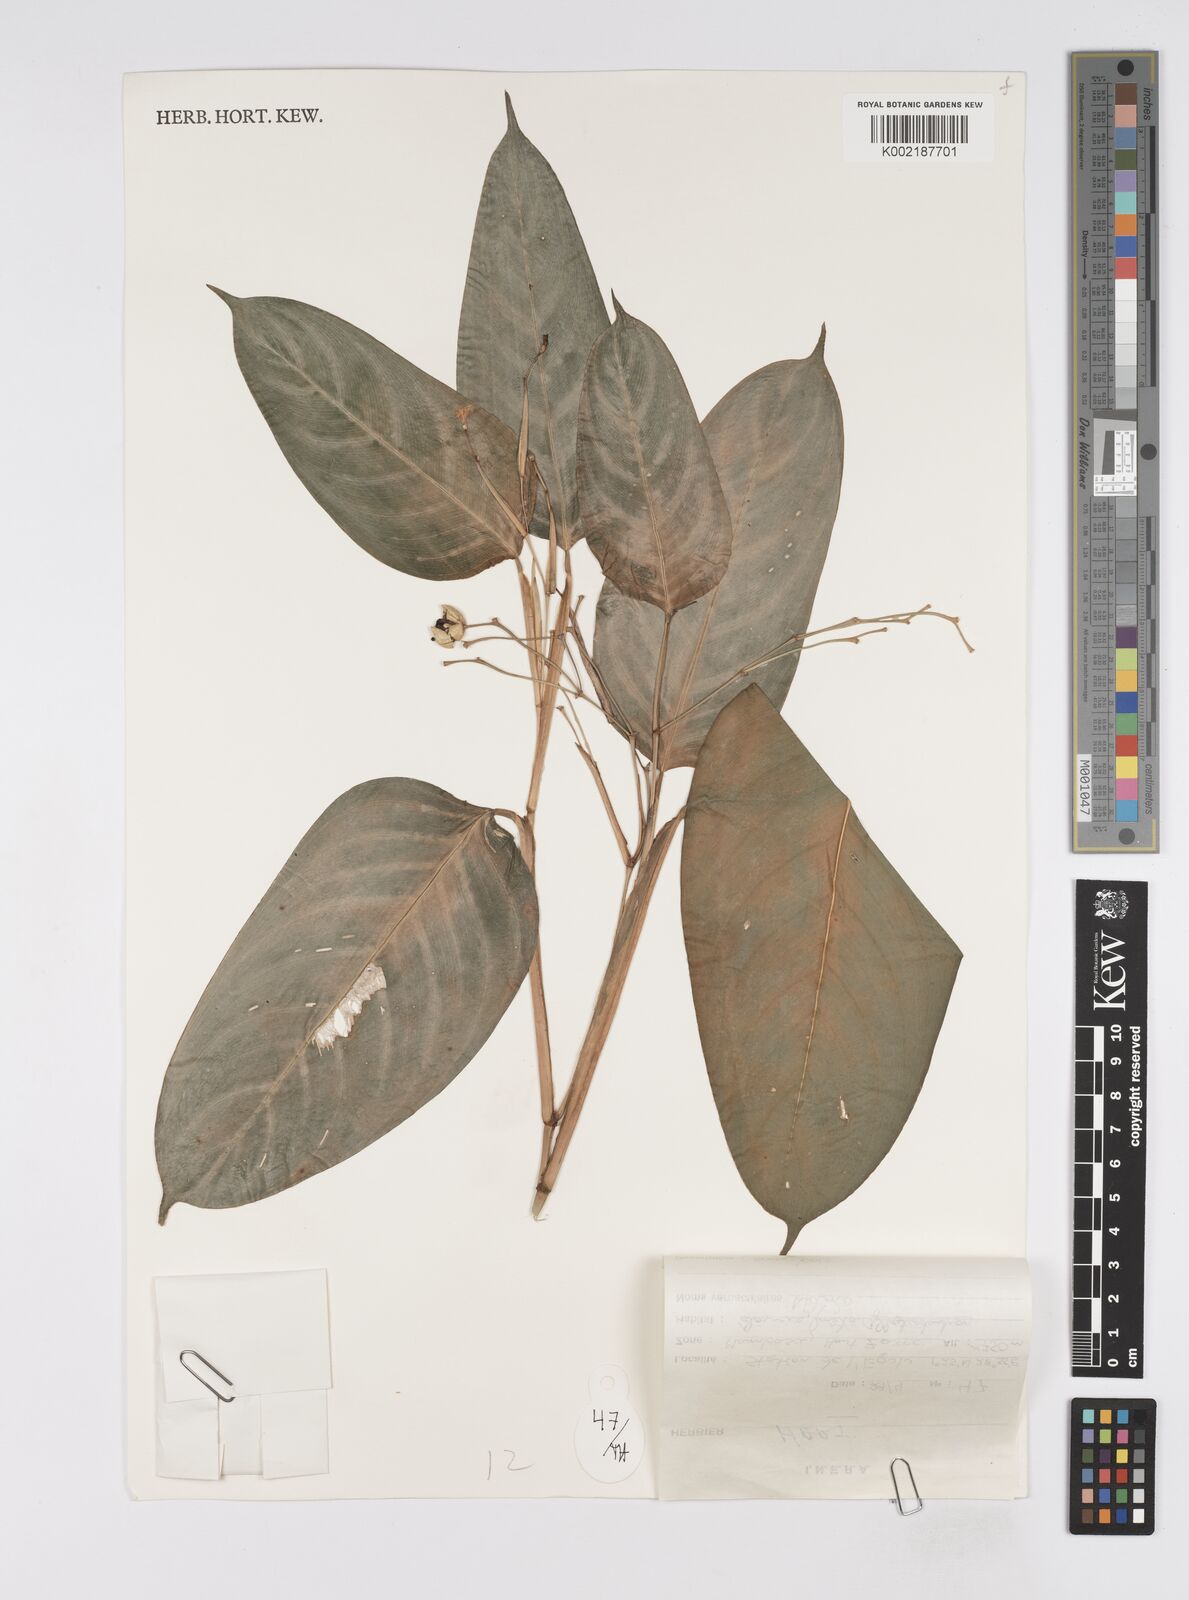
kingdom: Plantae
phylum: Tracheophyta
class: Liliopsida
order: Zingiberales
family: Marantaceae
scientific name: Marantaceae
